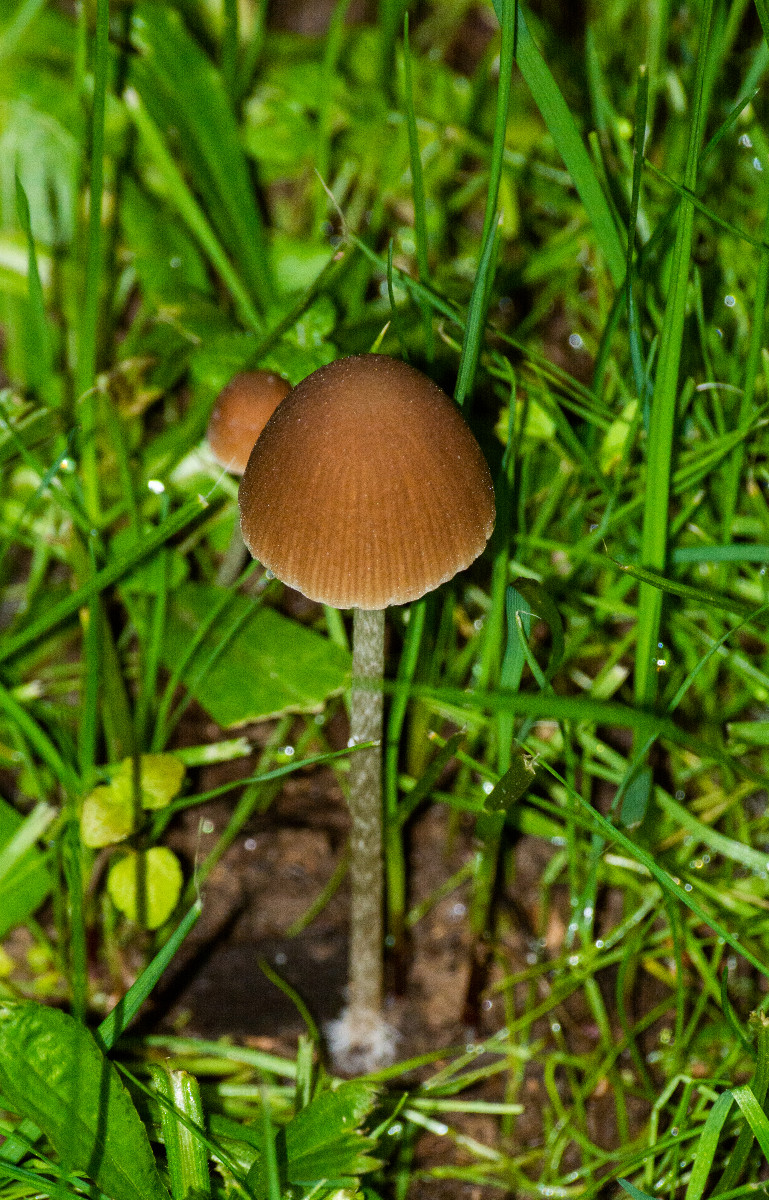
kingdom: Fungi
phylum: Basidiomycota
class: Agaricomycetes
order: Agaricales
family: Psathyrellaceae
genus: Psathyrella
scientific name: Psathyrella
